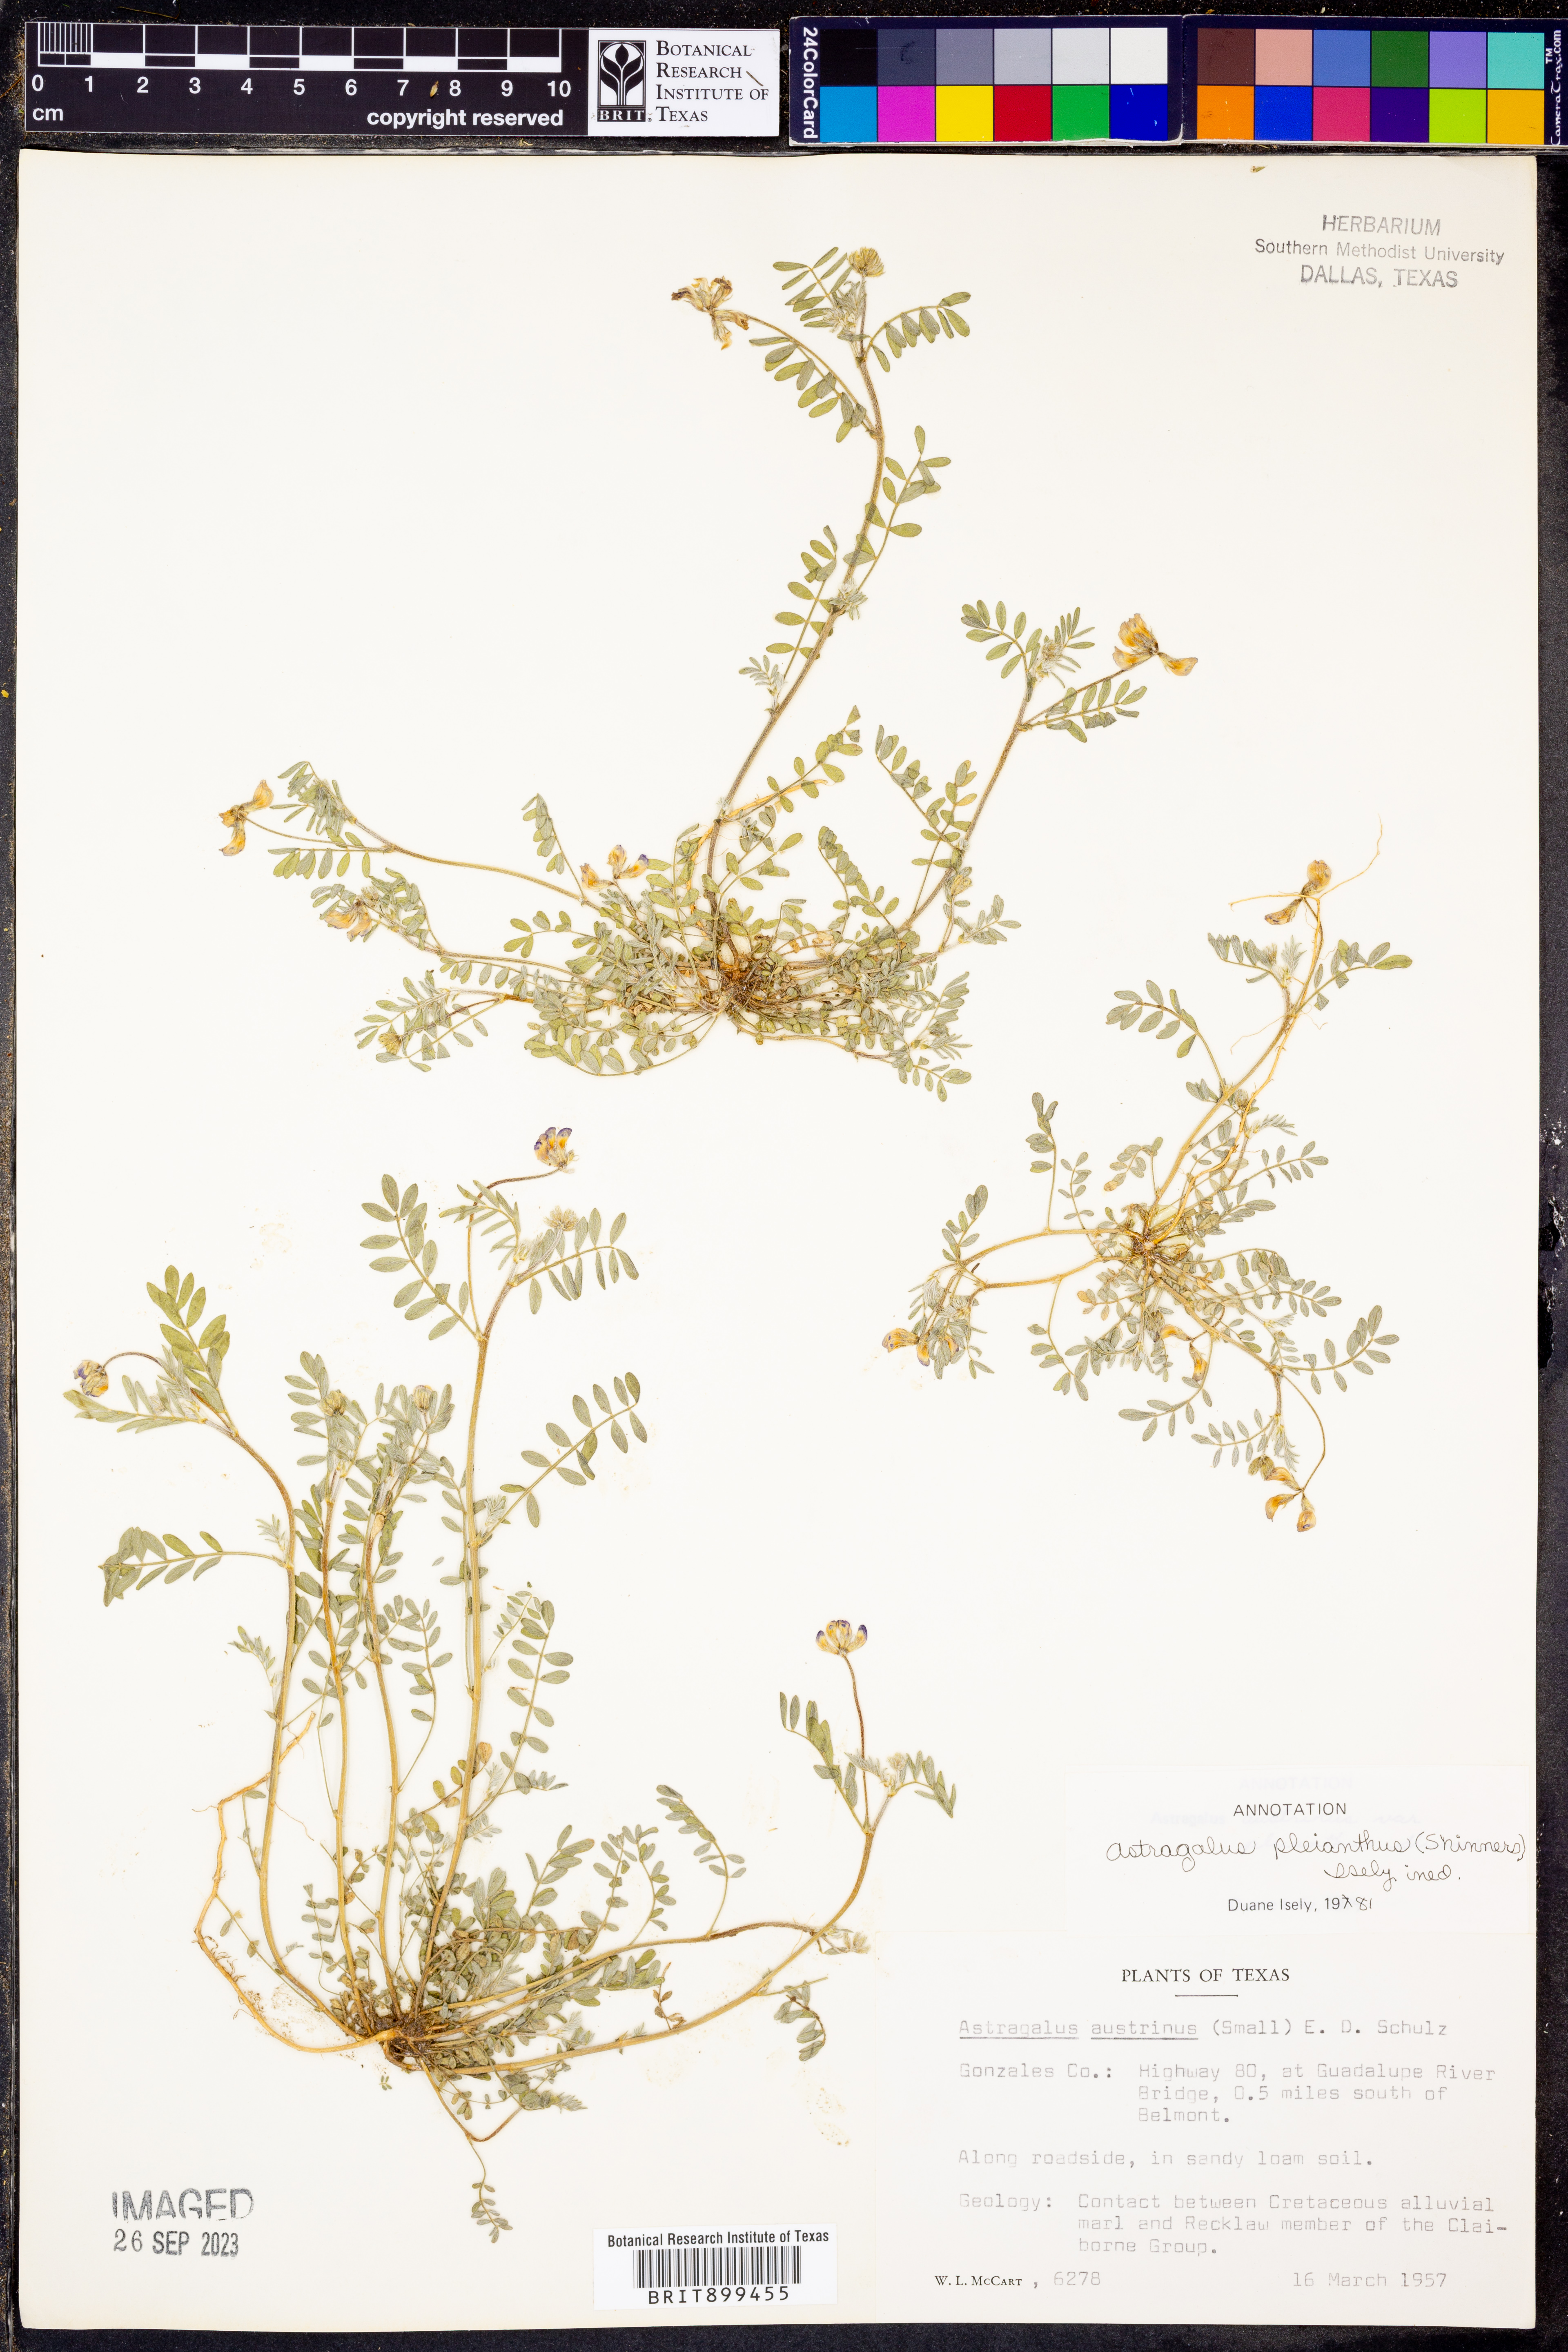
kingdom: Plantae
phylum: Tracheophyta
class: Magnoliopsida
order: Fabales
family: Fabaceae
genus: Astragalus
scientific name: Astragalus pleianthus
